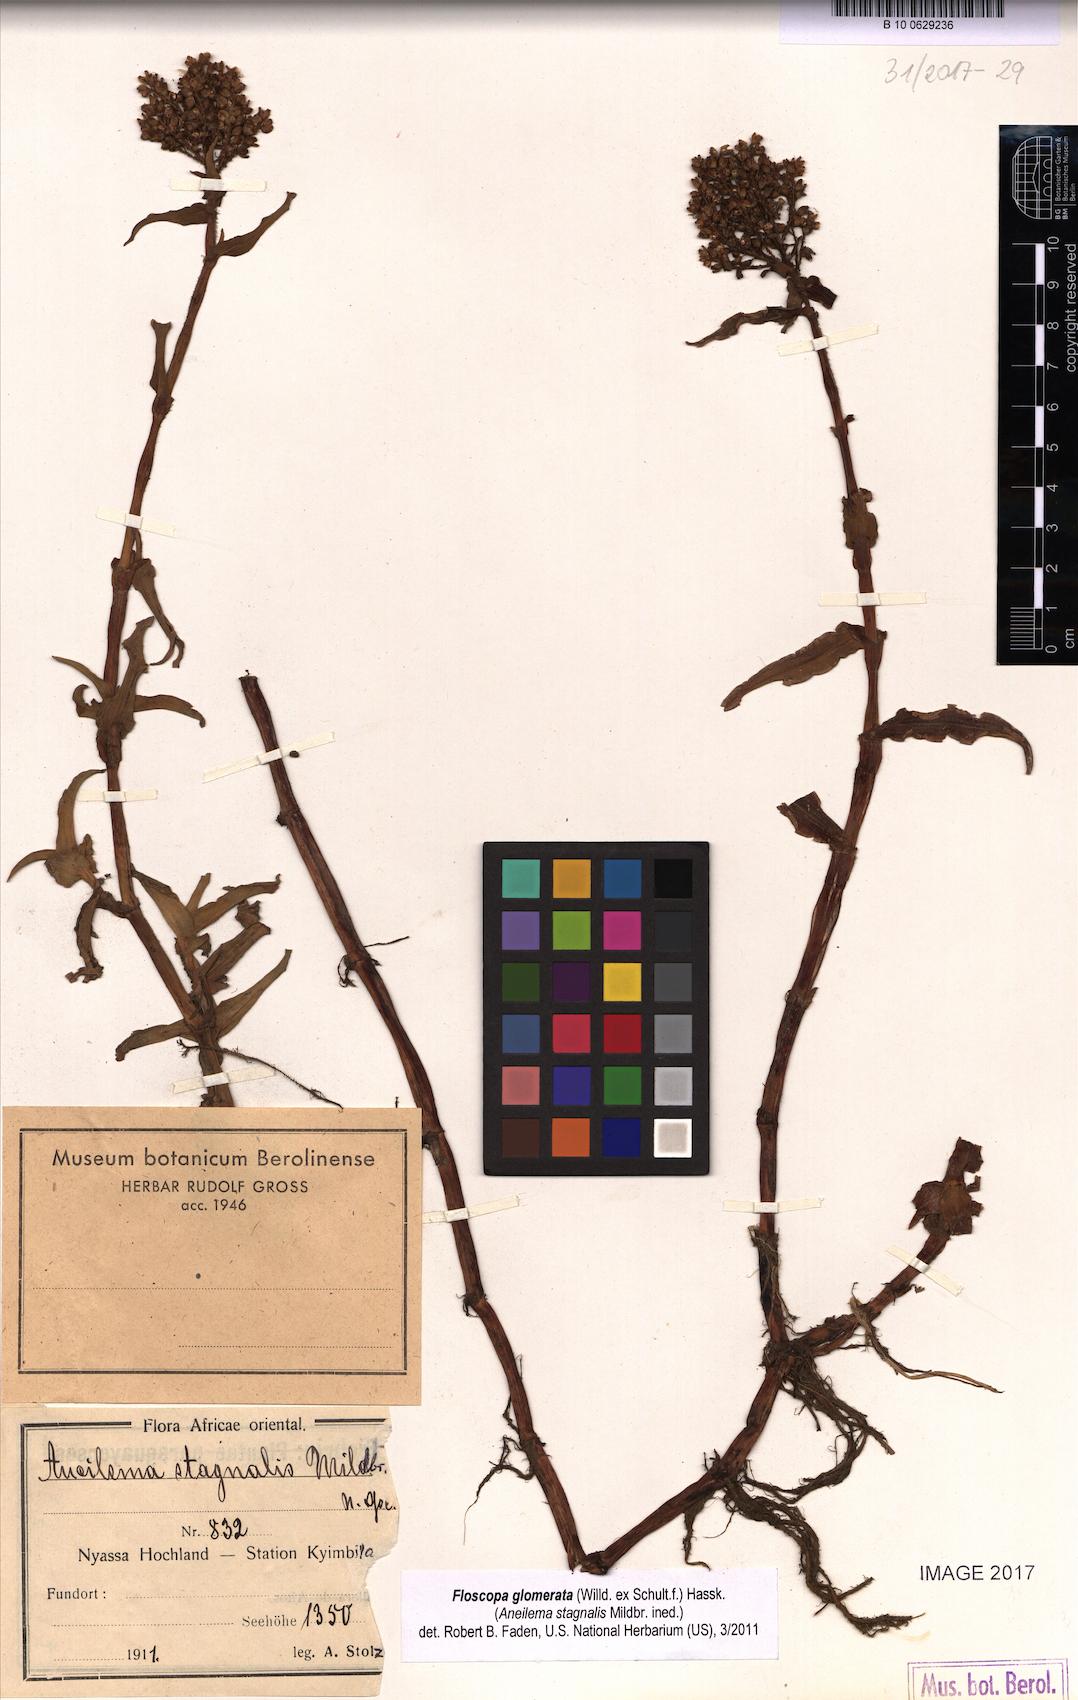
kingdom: Plantae
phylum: Tracheophyta
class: Liliopsida
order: Commelinales
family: Commelinaceae
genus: Floscopa
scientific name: Floscopa glomerata
